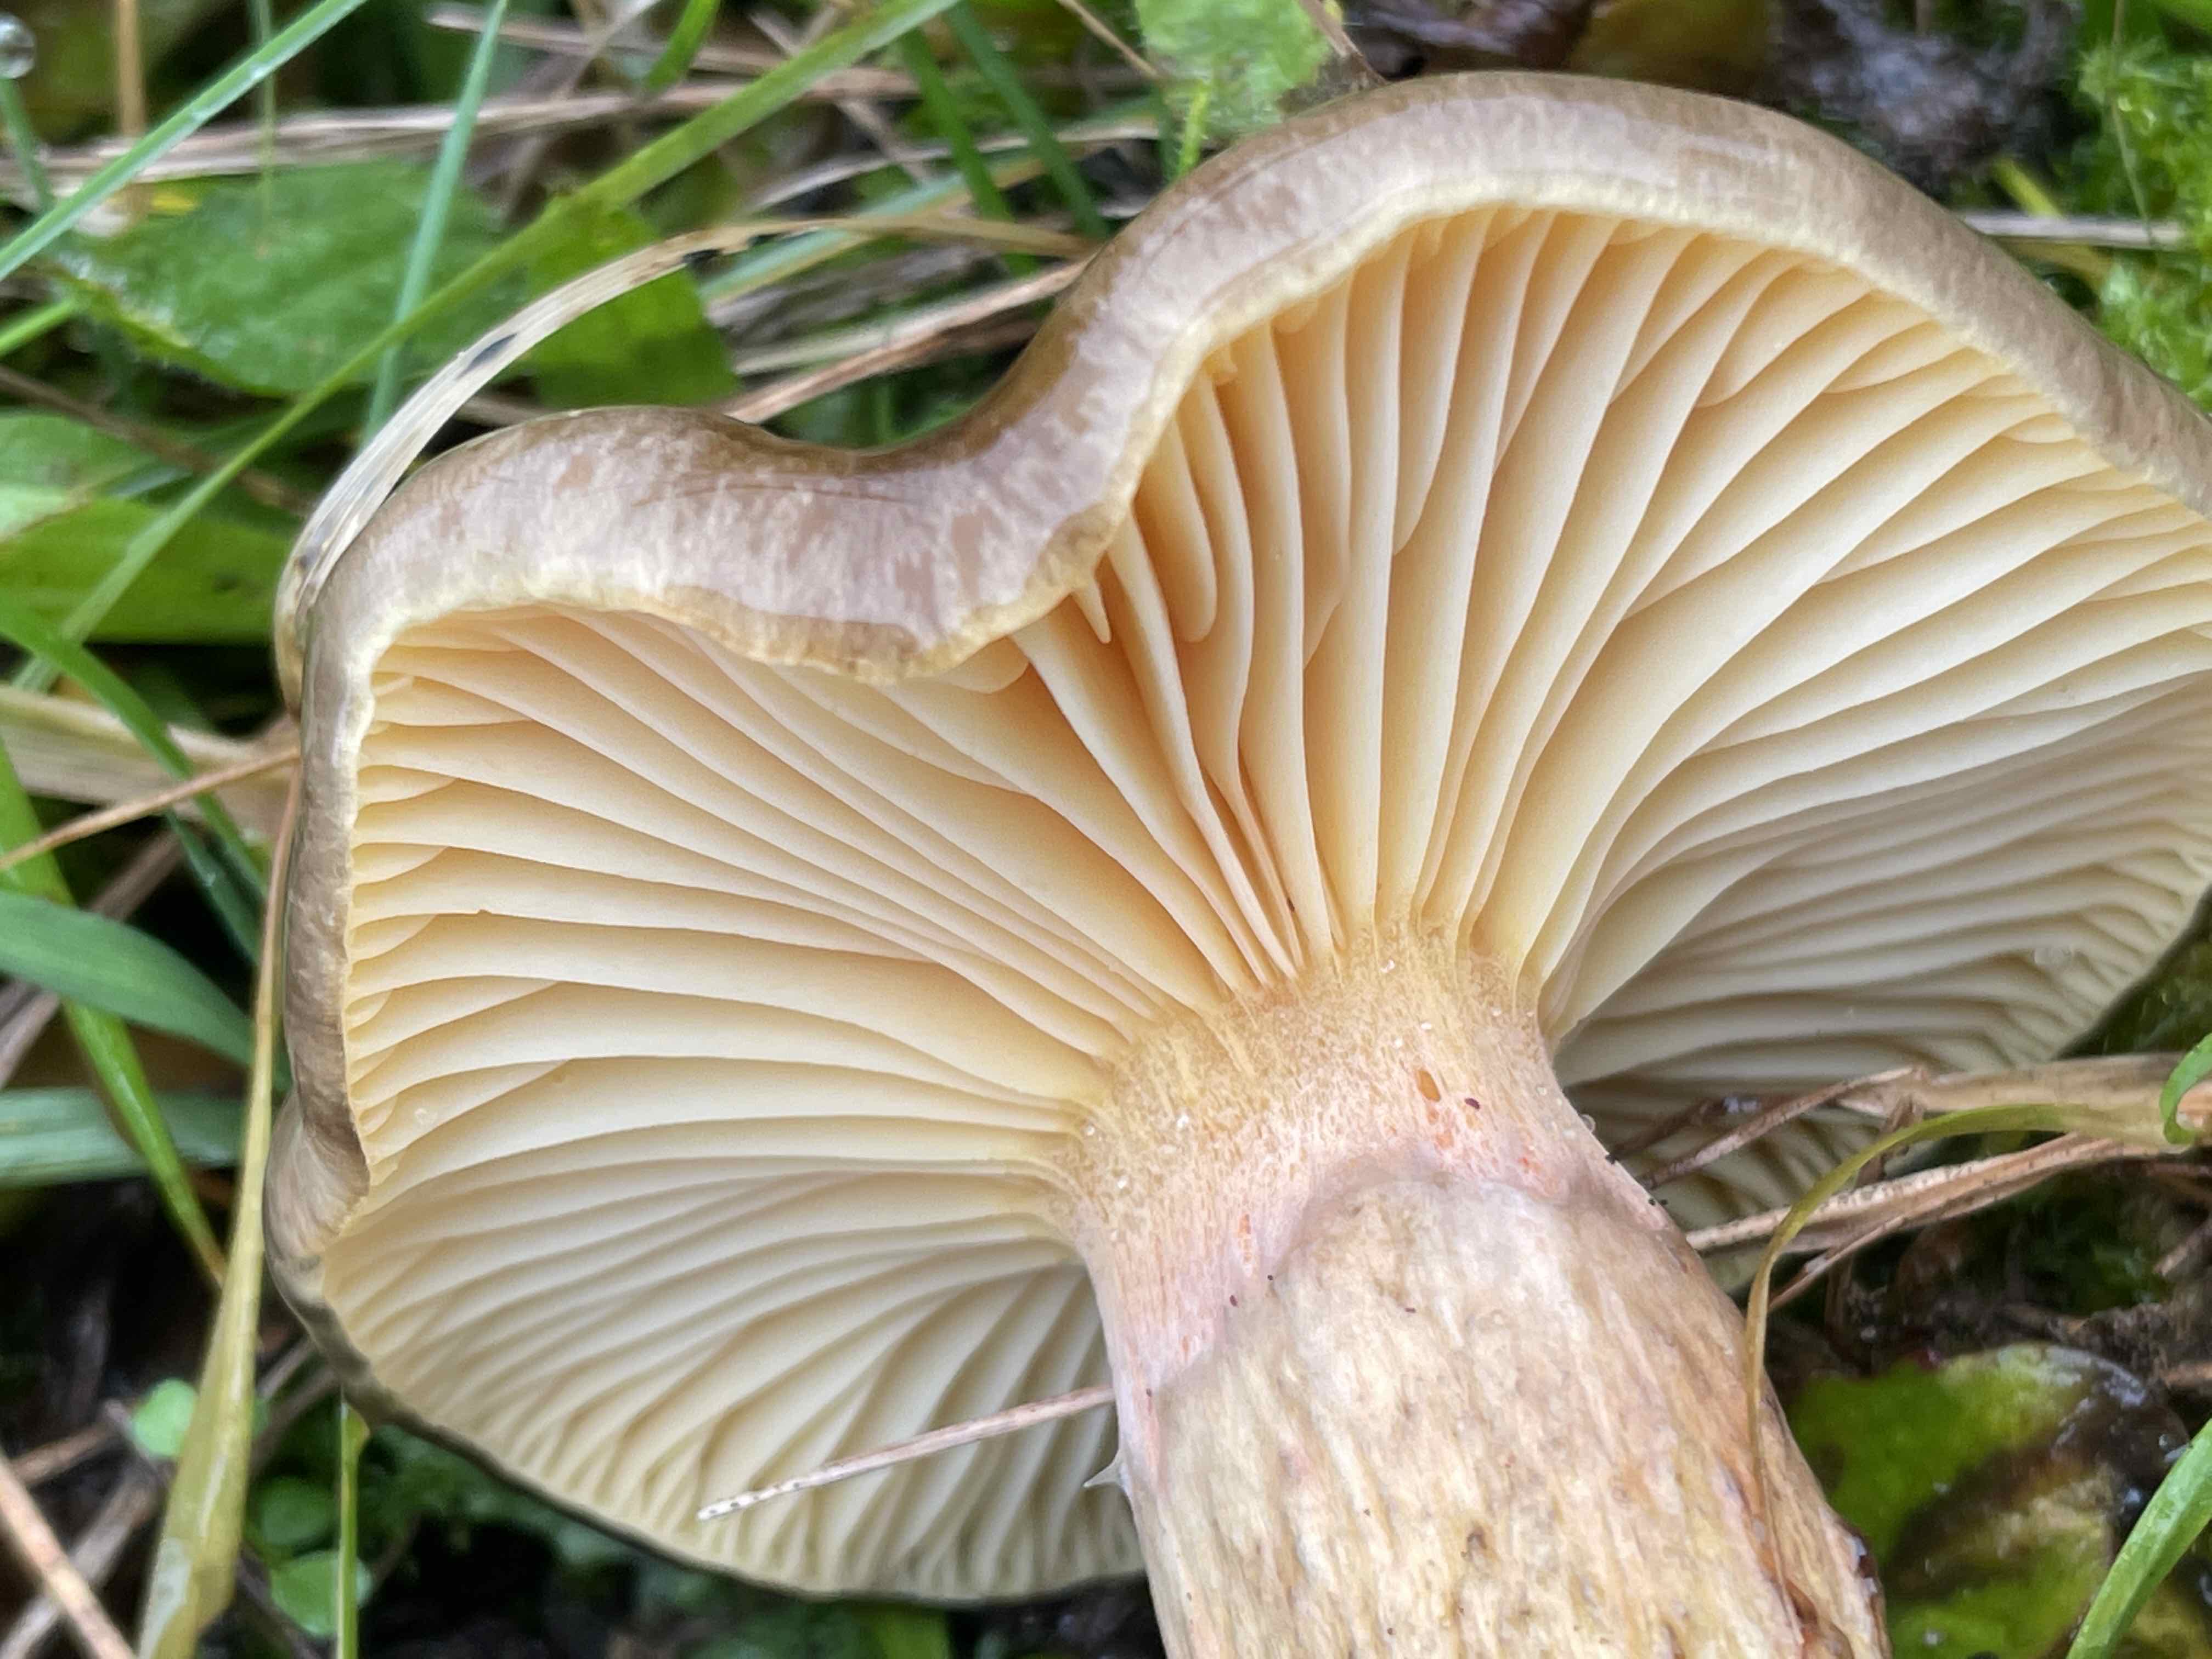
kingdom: Fungi
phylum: Basidiomycota
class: Agaricomycetes
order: Agaricales
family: Hygrophoraceae
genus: Hygrophorus
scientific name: Hygrophorus hypothejus
